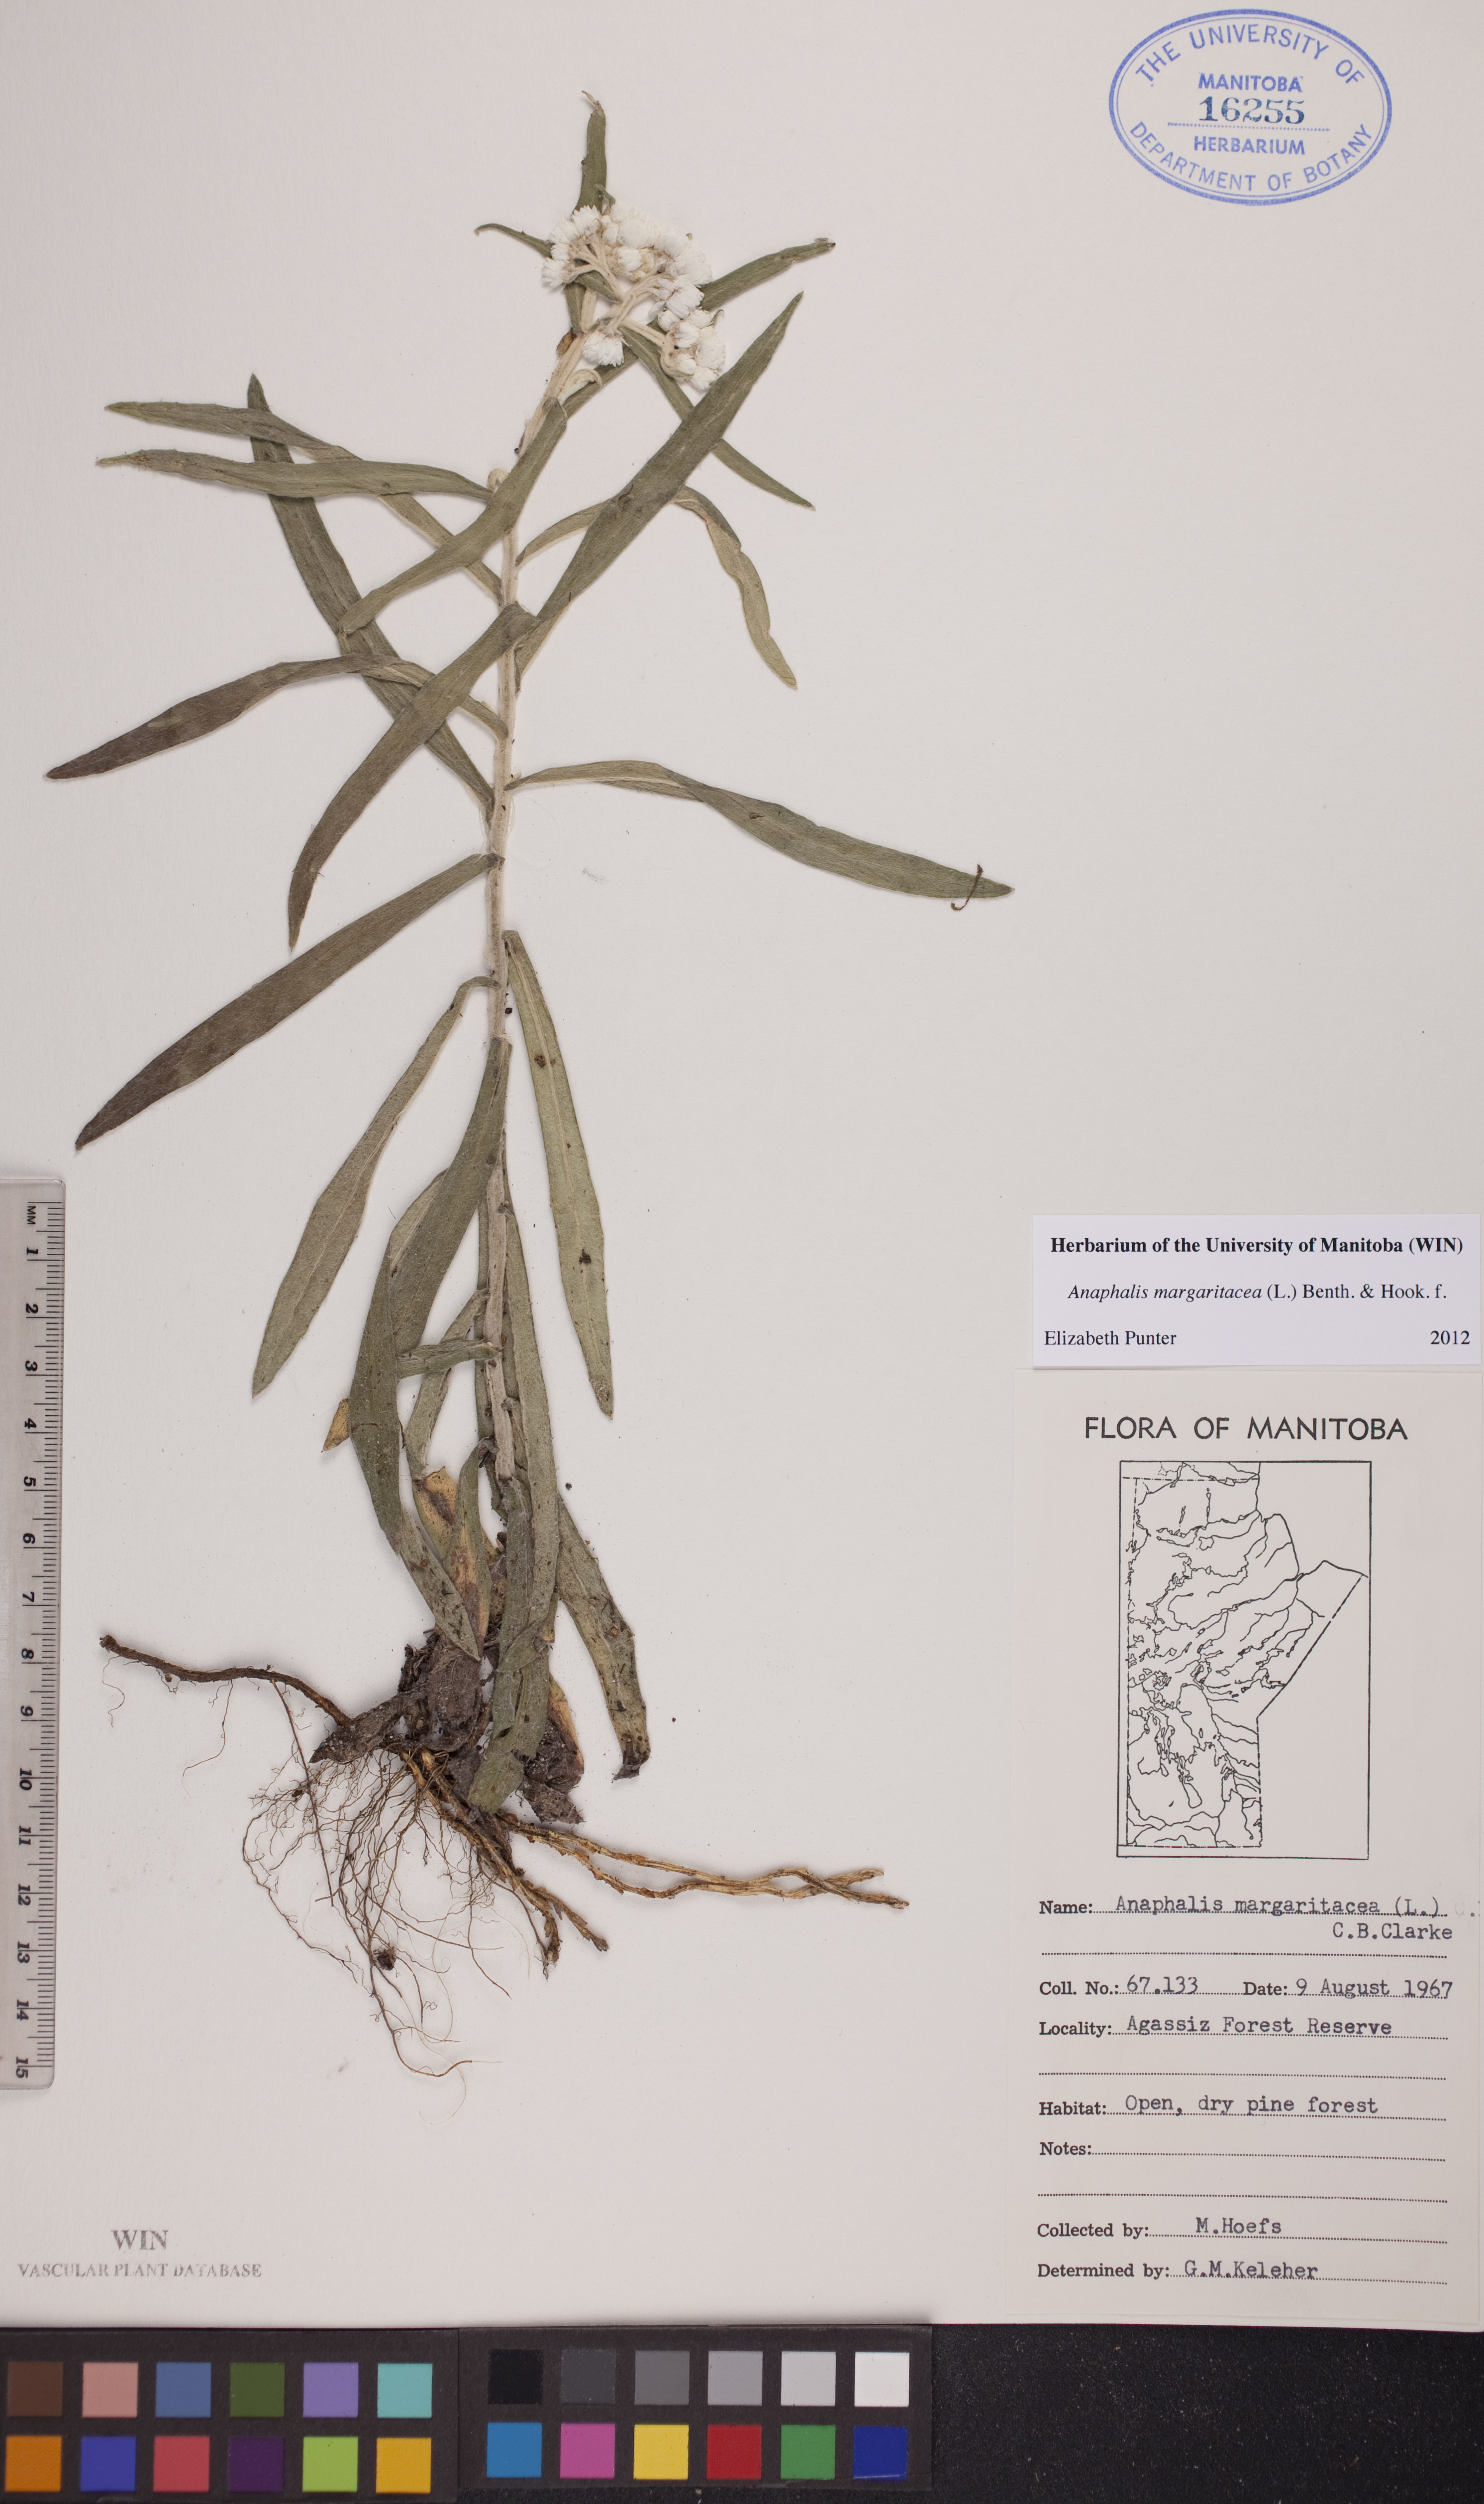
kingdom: Plantae
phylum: Tracheophyta
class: Magnoliopsida
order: Asterales
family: Asteraceae
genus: Anaphalis
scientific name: Anaphalis margaritacea
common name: Pearly everlasting
